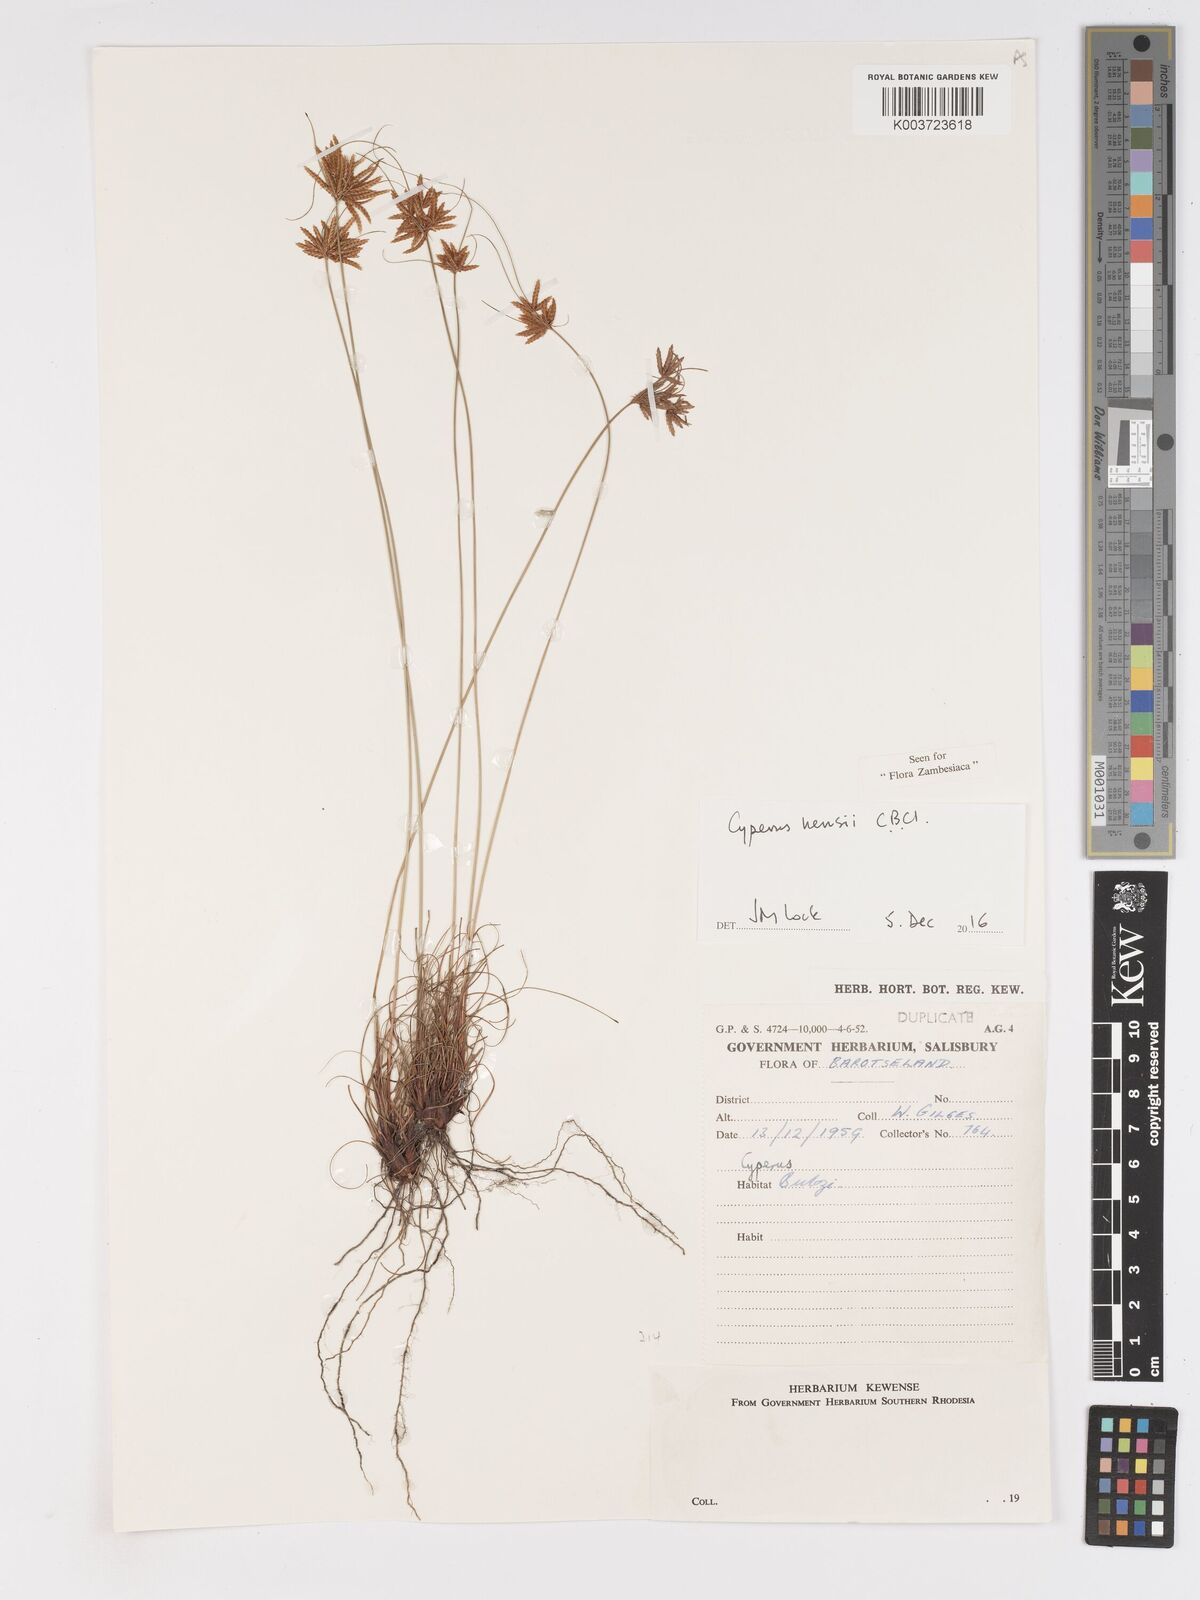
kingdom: Plantae
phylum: Tracheophyta
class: Liliopsida
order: Poales
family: Cyperaceae
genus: Cyperus
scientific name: Cyperus hensii
